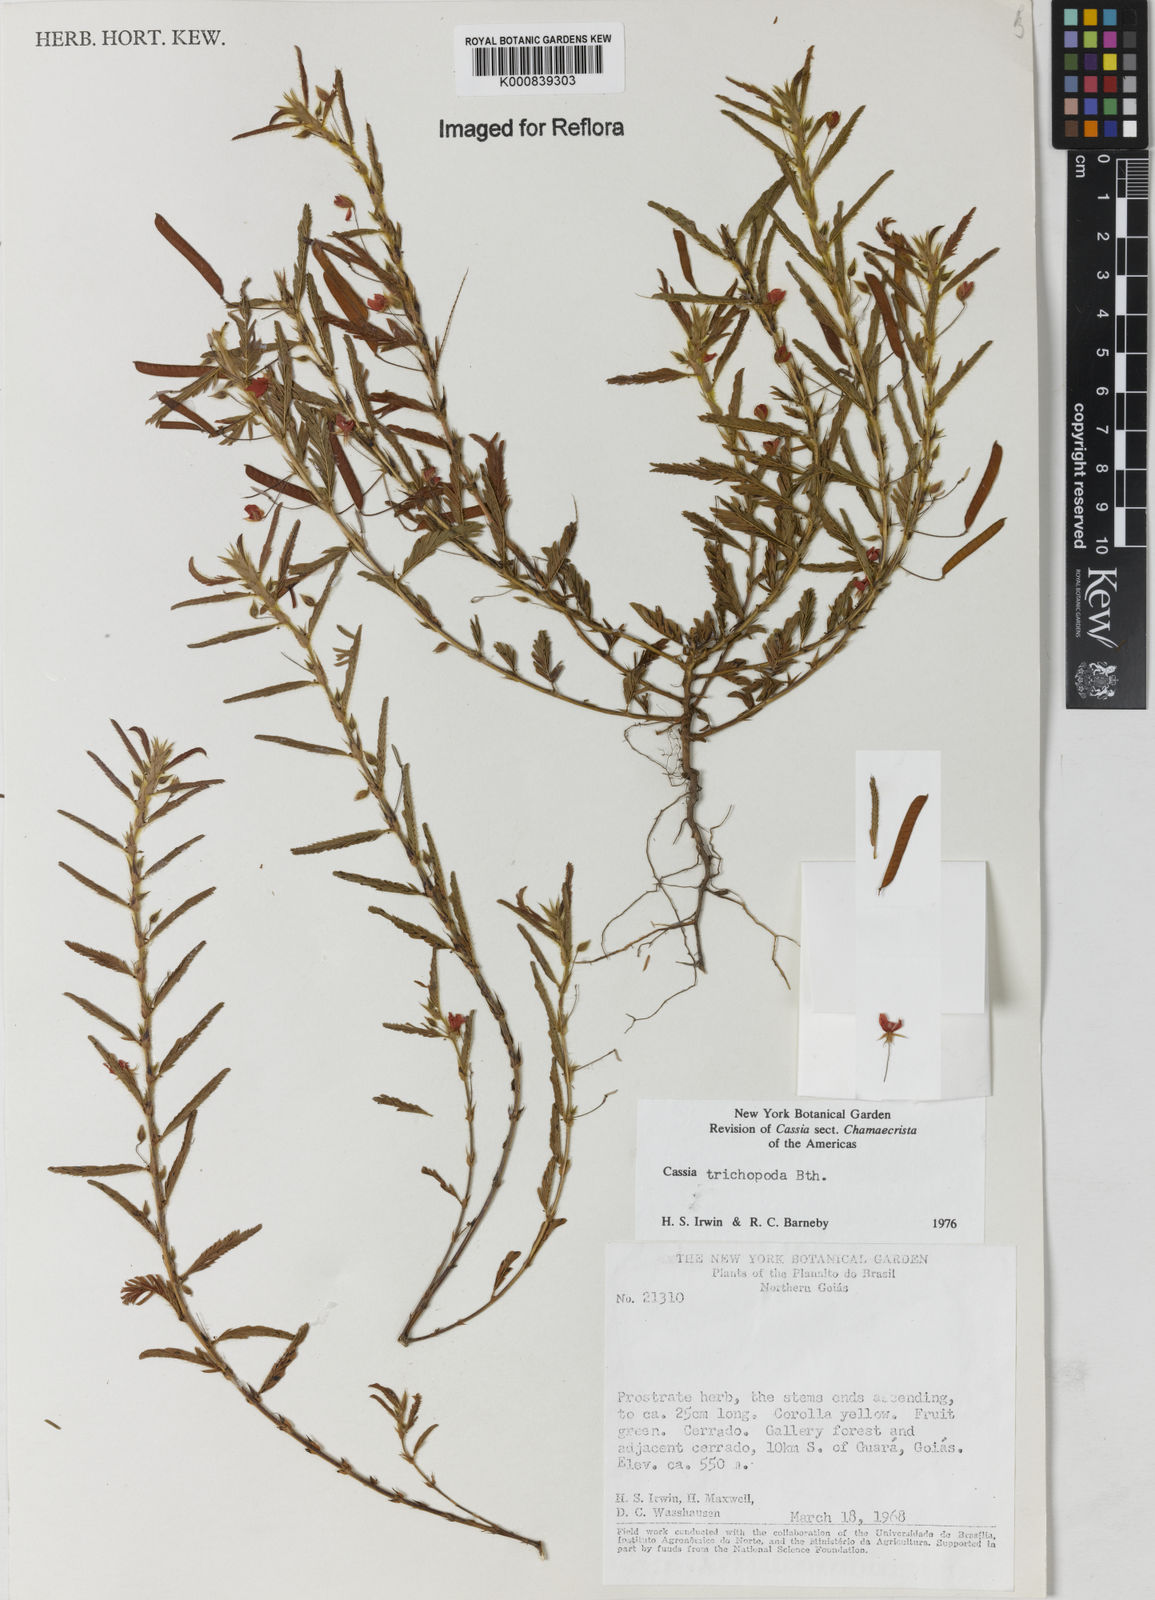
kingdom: Plantae
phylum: Tracheophyta
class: Magnoliopsida
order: Fabales
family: Fabaceae
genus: Chamaecrista
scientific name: Chamaecrista trichopoda
